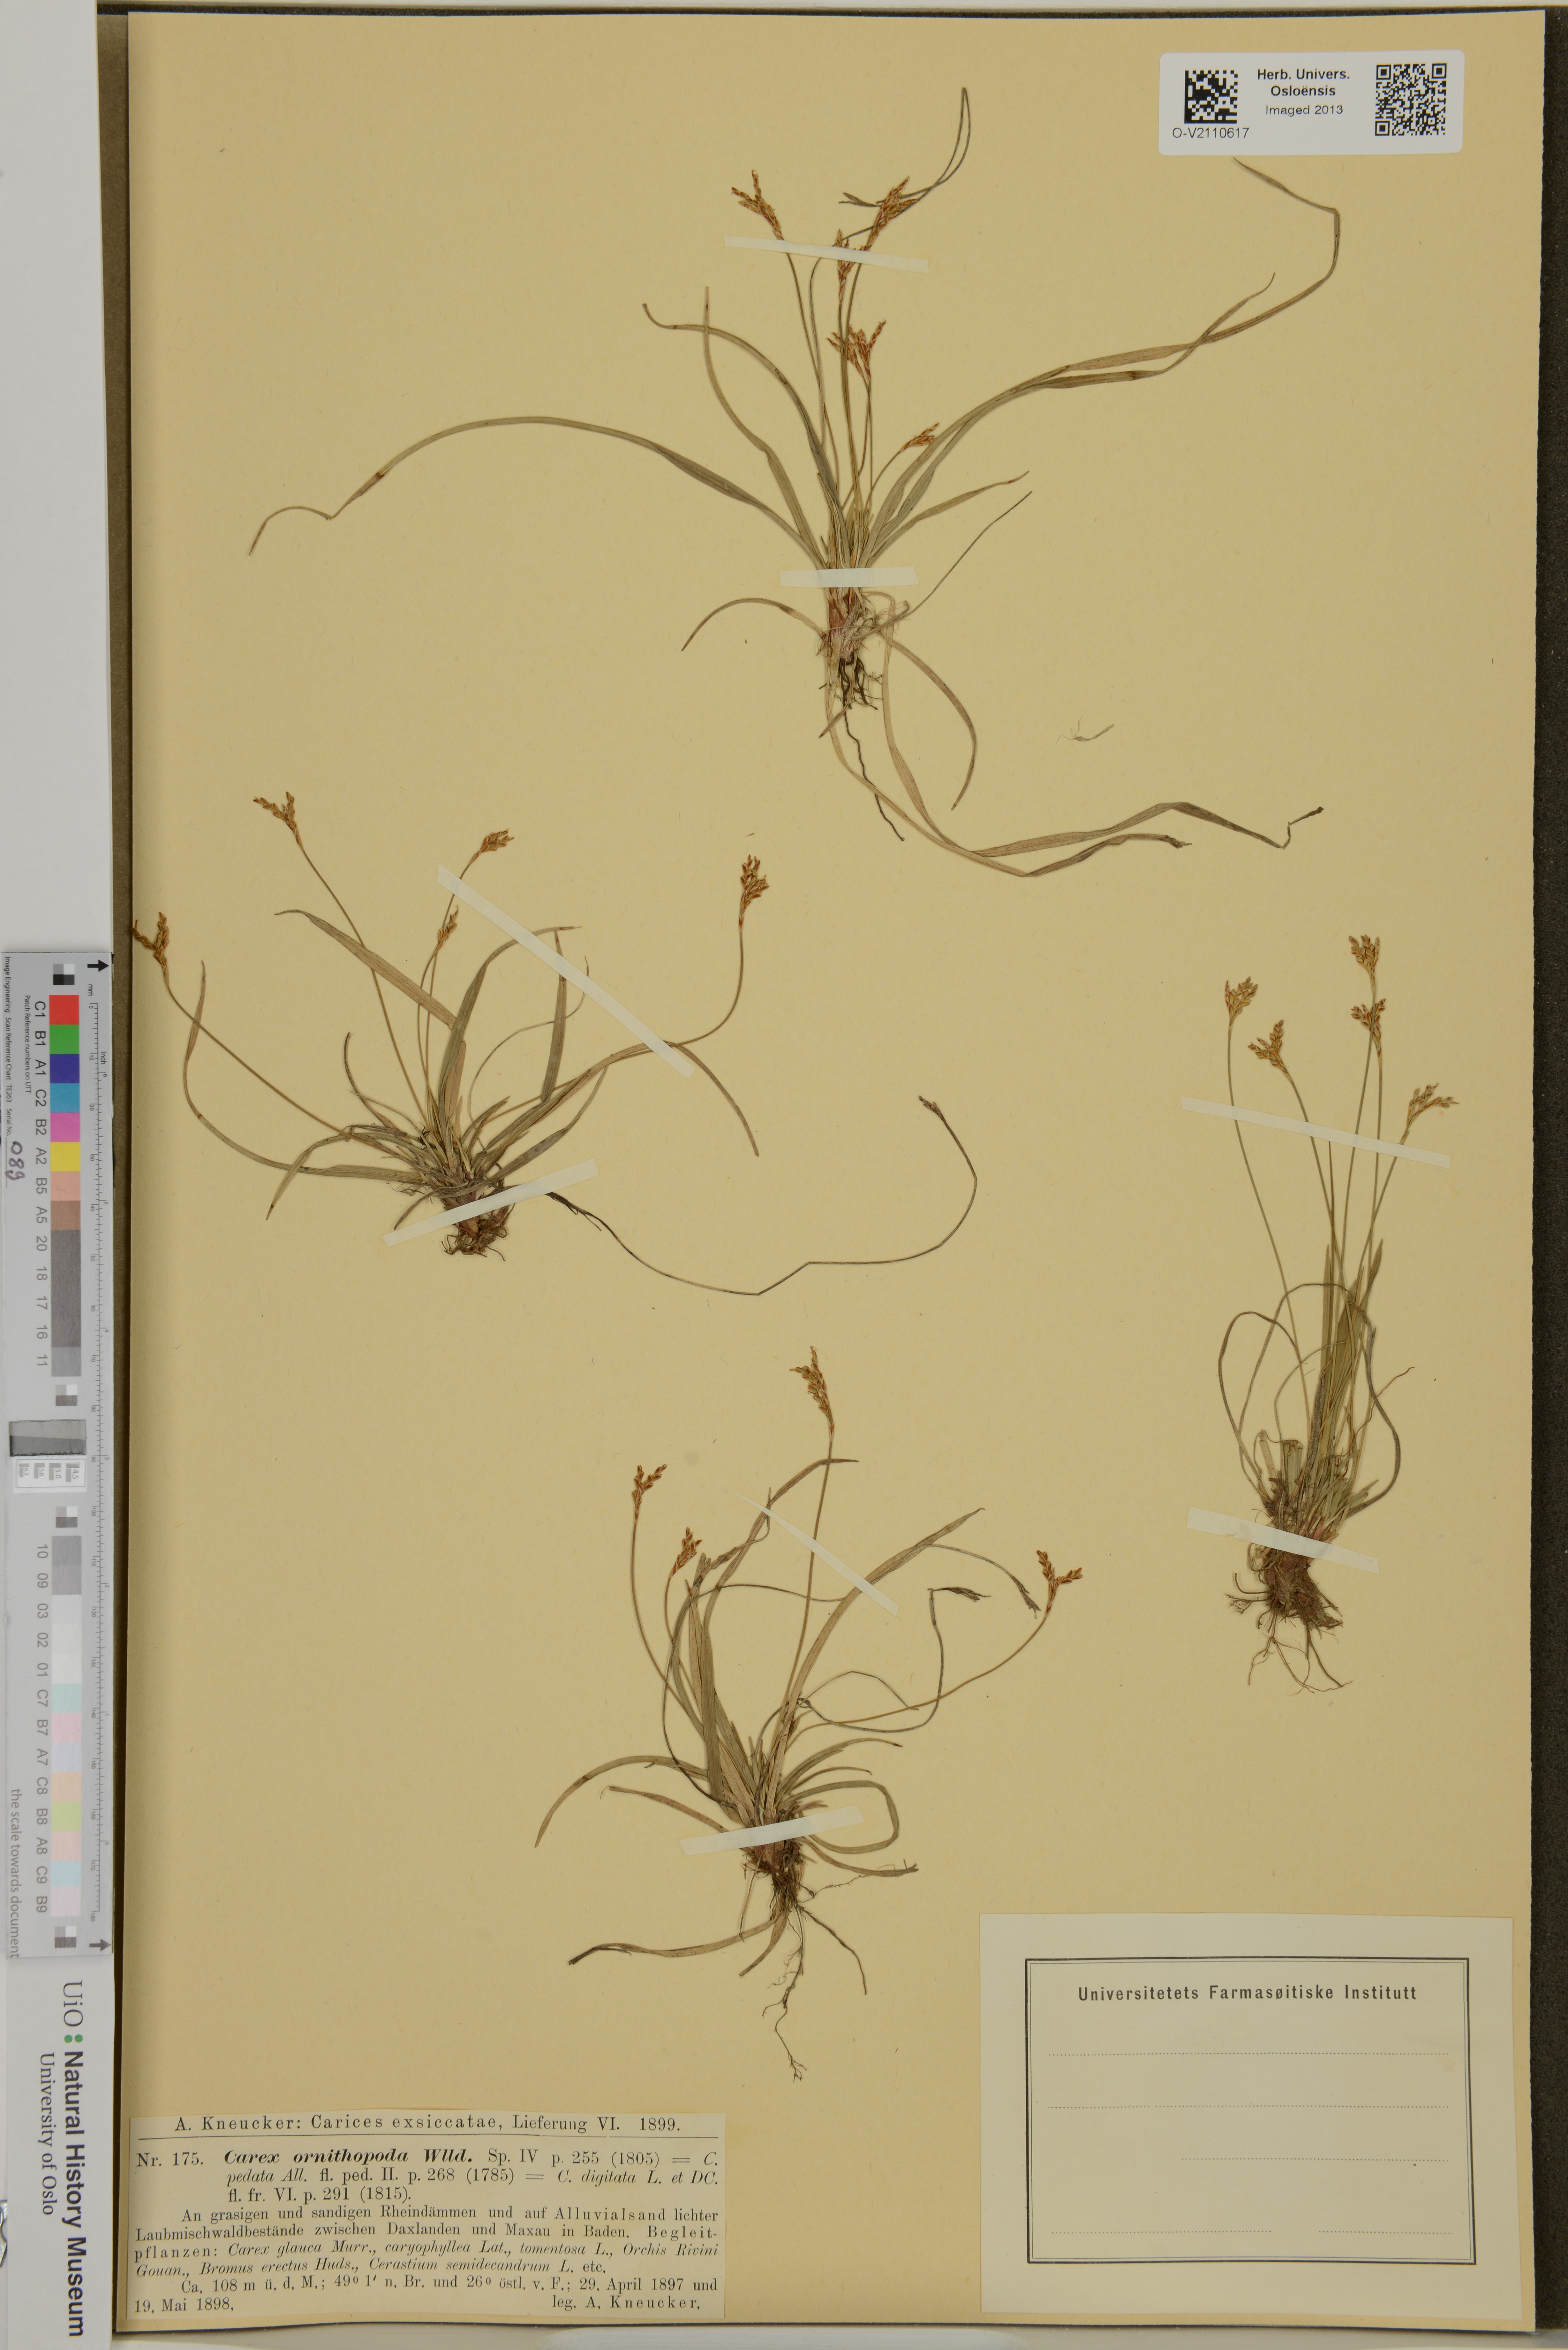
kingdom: Plantae
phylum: Tracheophyta
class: Liliopsida
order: Poales
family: Cyperaceae
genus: Carex
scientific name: Carex ornithopoda
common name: Bird's-foot sedge
